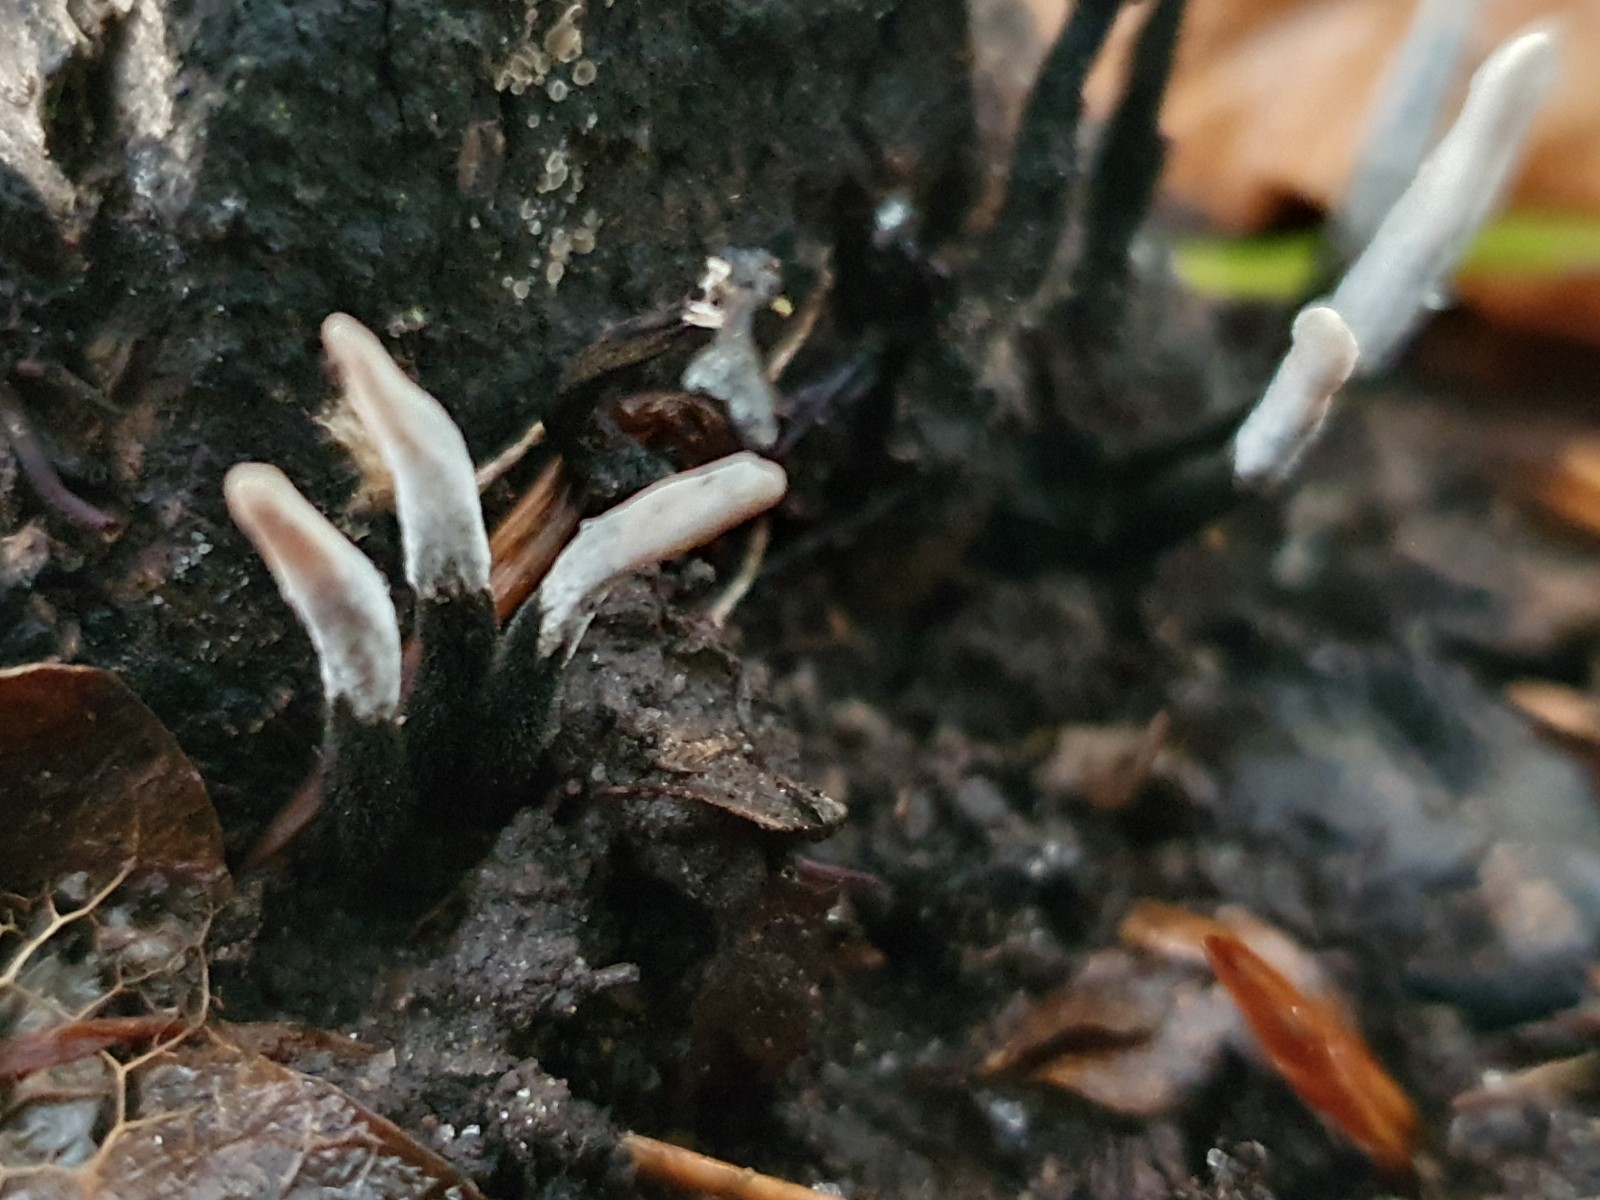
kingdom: Fungi
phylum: Ascomycota
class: Sordariomycetes
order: Xylariales
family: Xylariaceae
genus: Xylaria
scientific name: Xylaria hypoxylon
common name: grenet stødsvamp
